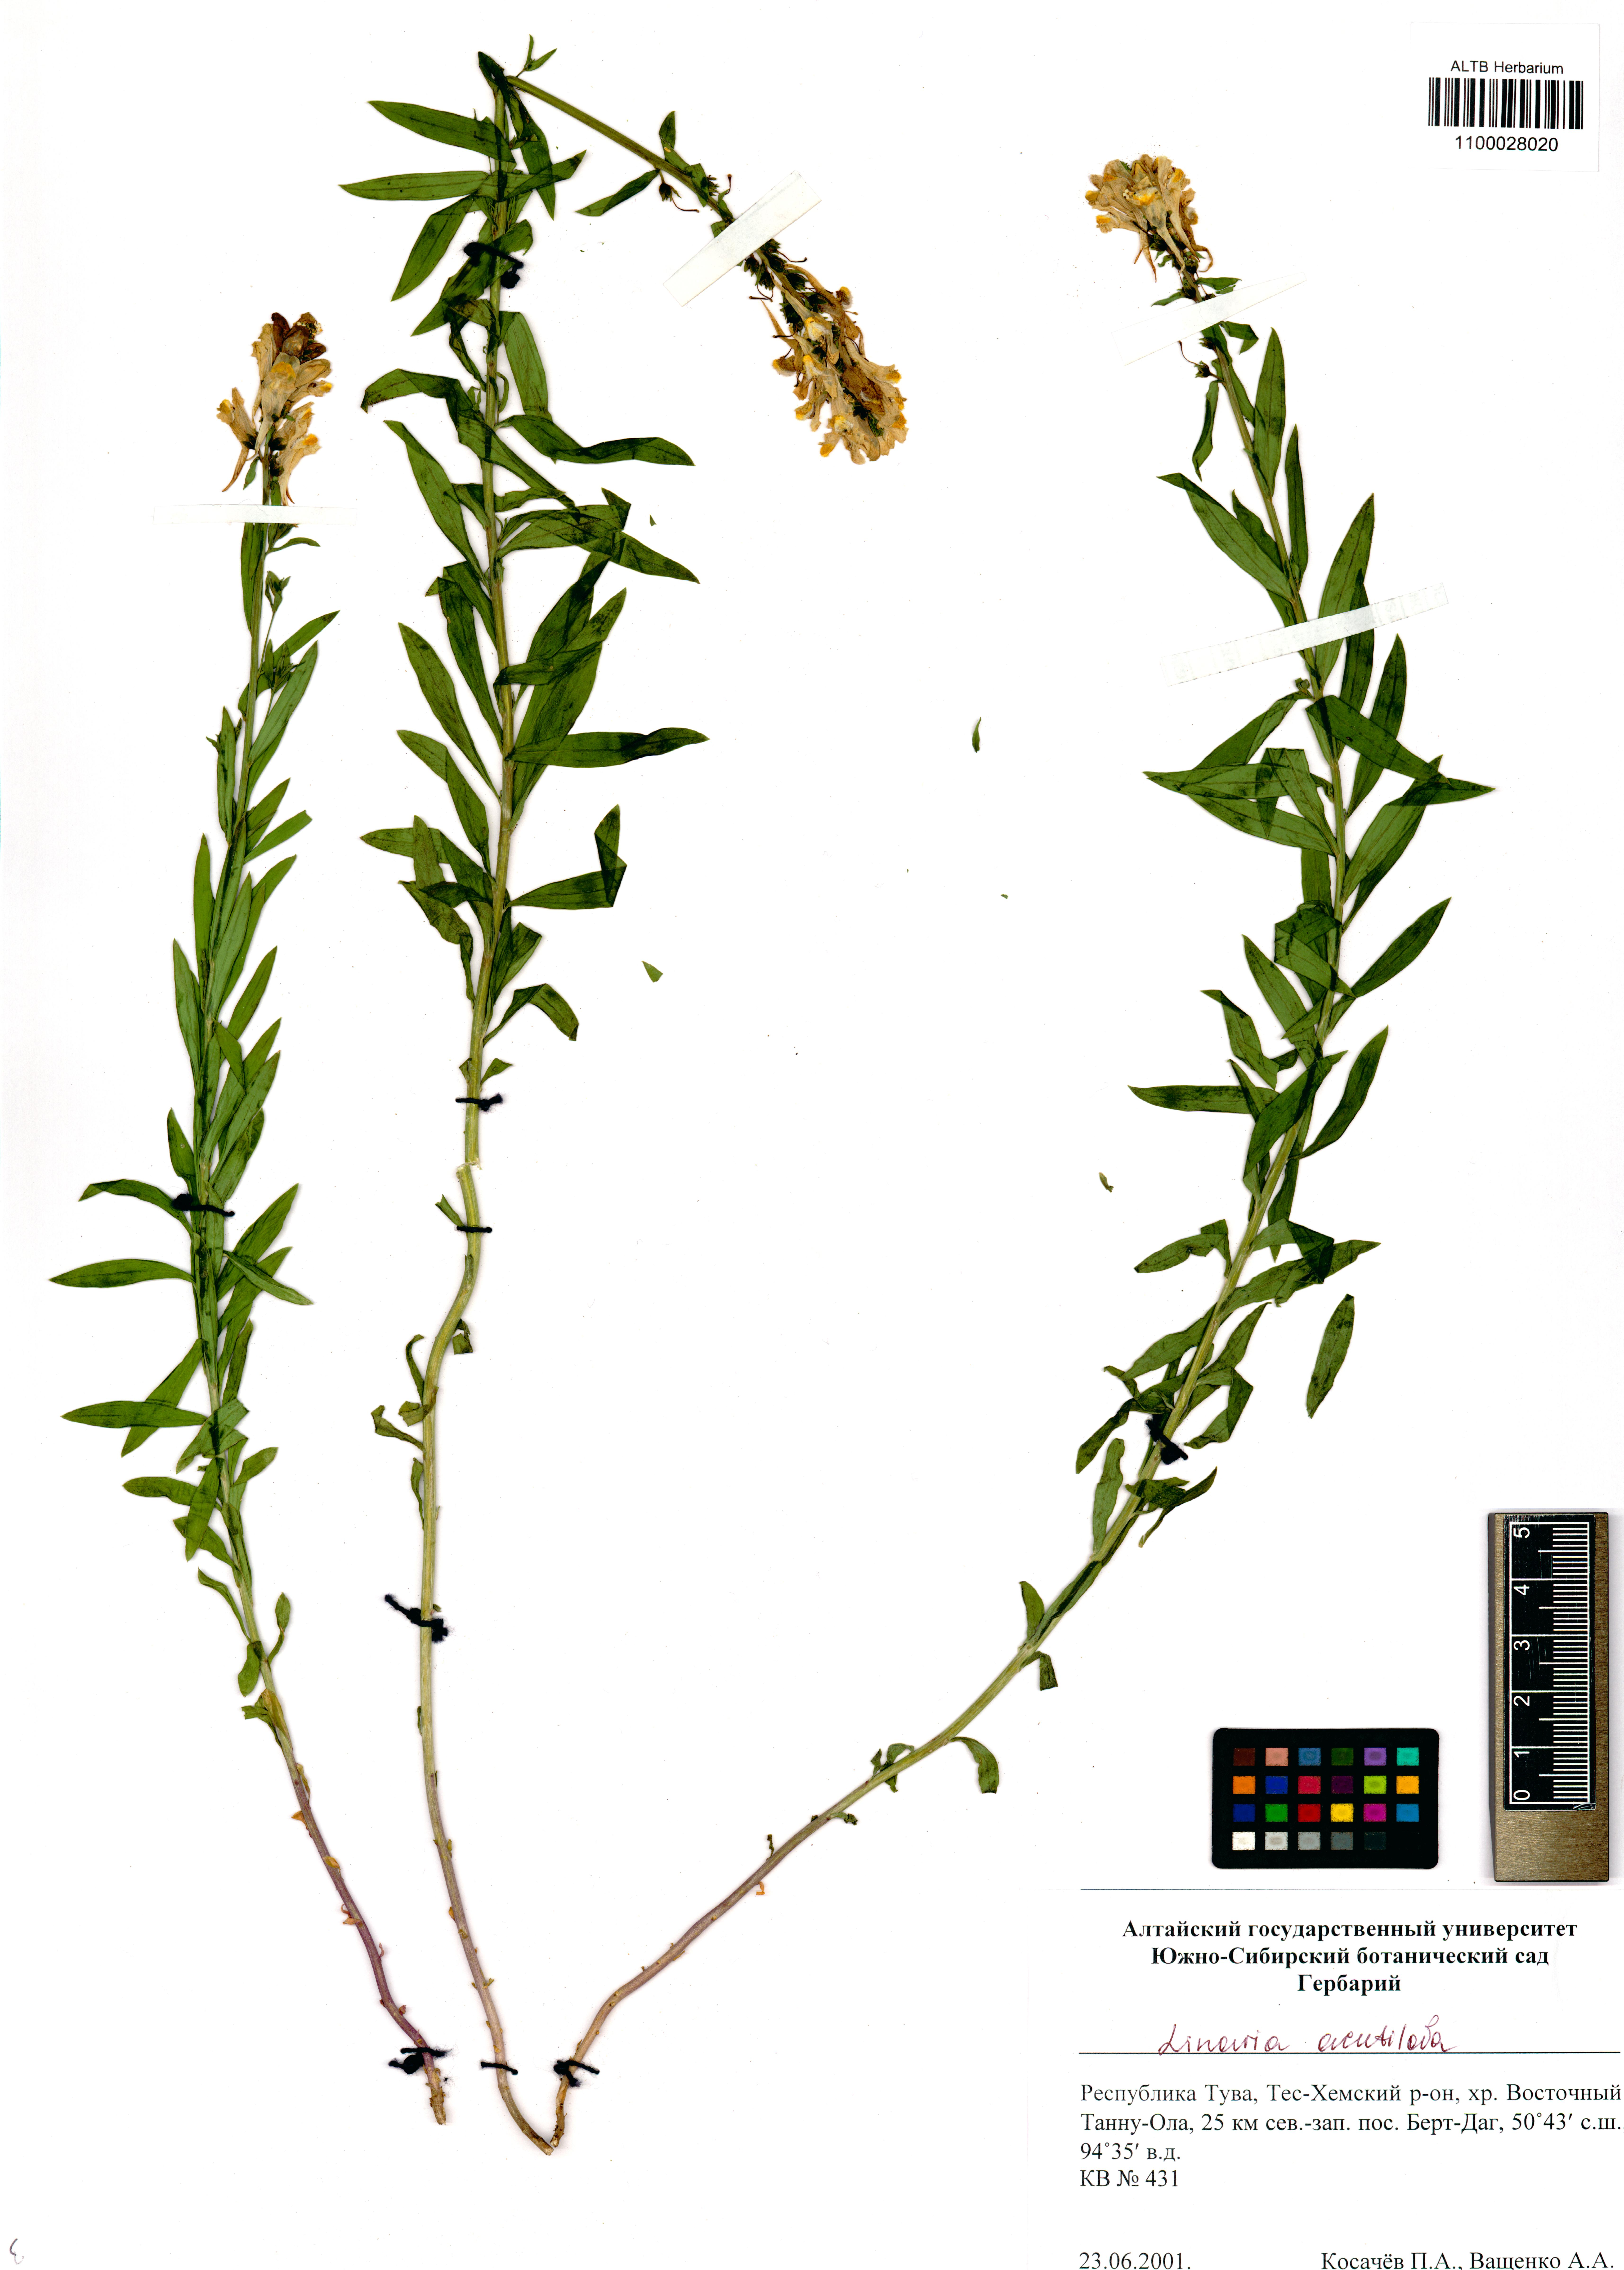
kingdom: Plantae
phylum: Tracheophyta
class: Magnoliopsida
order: Lamiales
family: Plantaginaceae
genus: Linaria
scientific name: Linaria acutiloba
